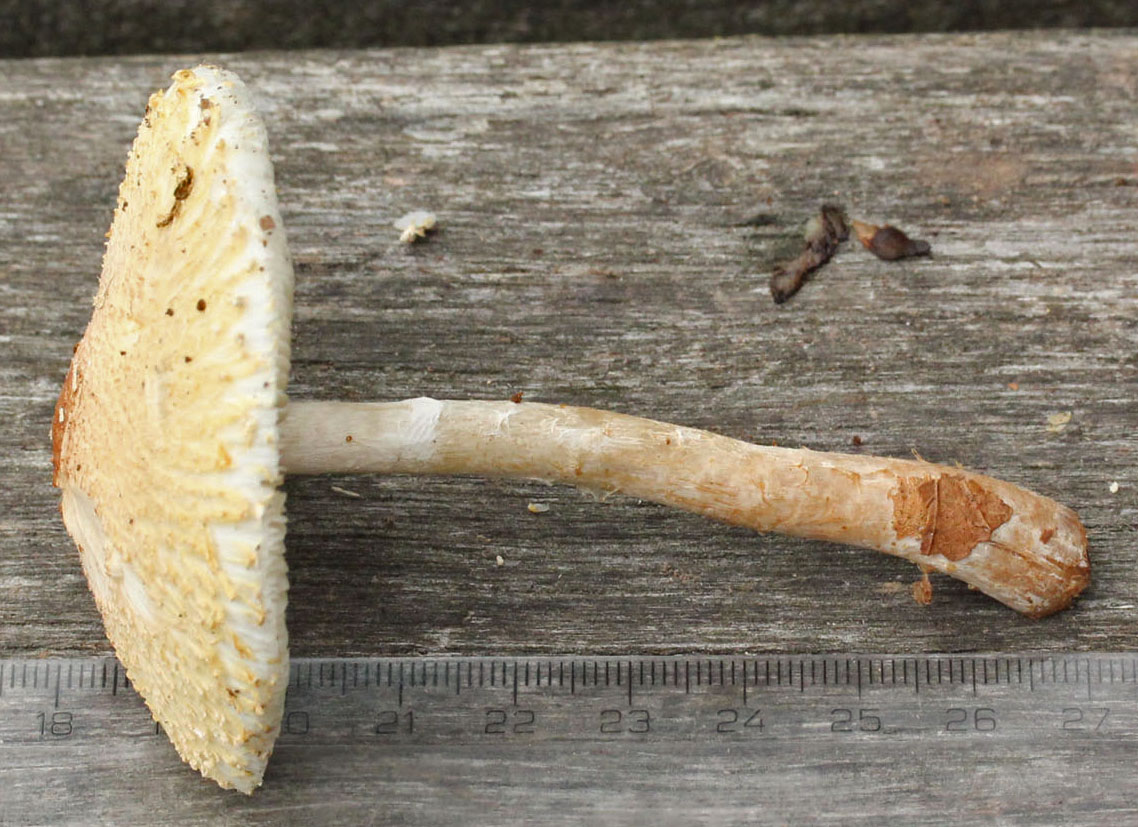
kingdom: Fungi
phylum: Basidiomycota
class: Agaricomycetes
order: Agaricales
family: Agaricaceae
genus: Lepiota
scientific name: Lepiota clypeolaria
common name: flosset parasolhat
